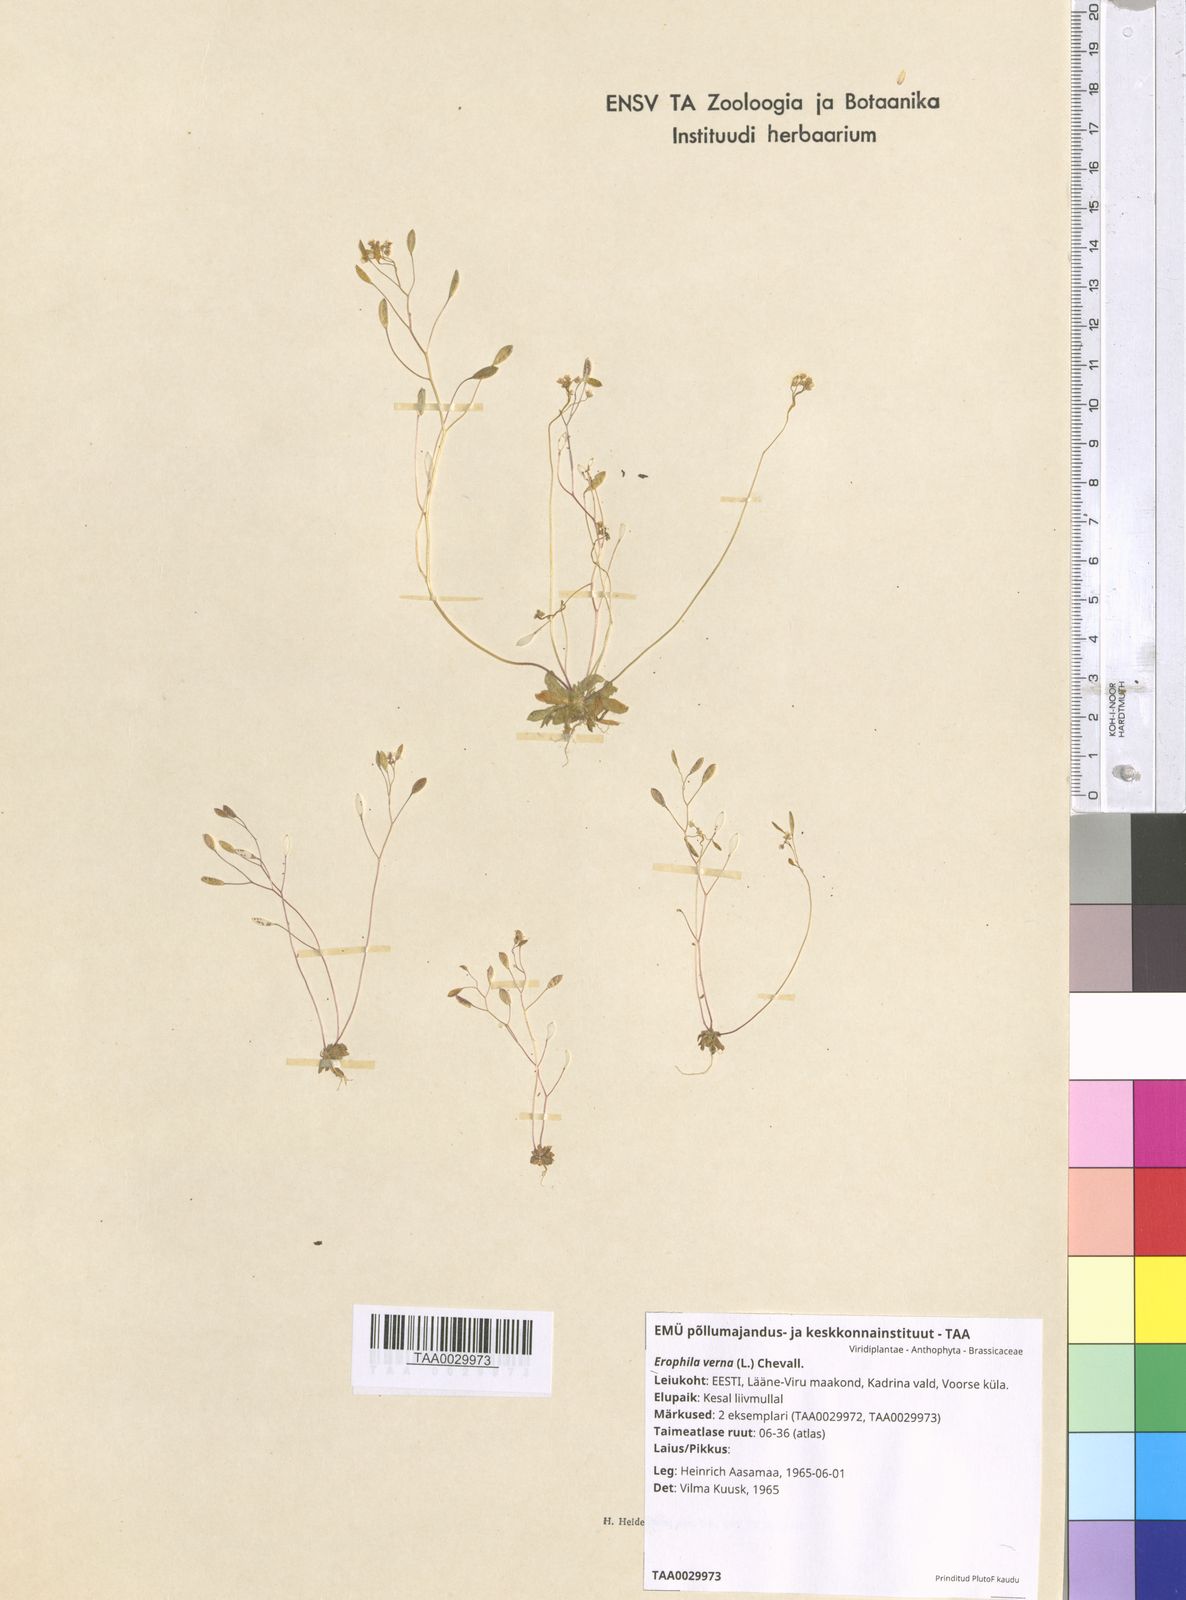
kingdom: Plantae
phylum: Tracheophyta
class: Magnoliopsida
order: Brassicales
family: Brassicaceae
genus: Draba
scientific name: Draba verna
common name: Spring draba
